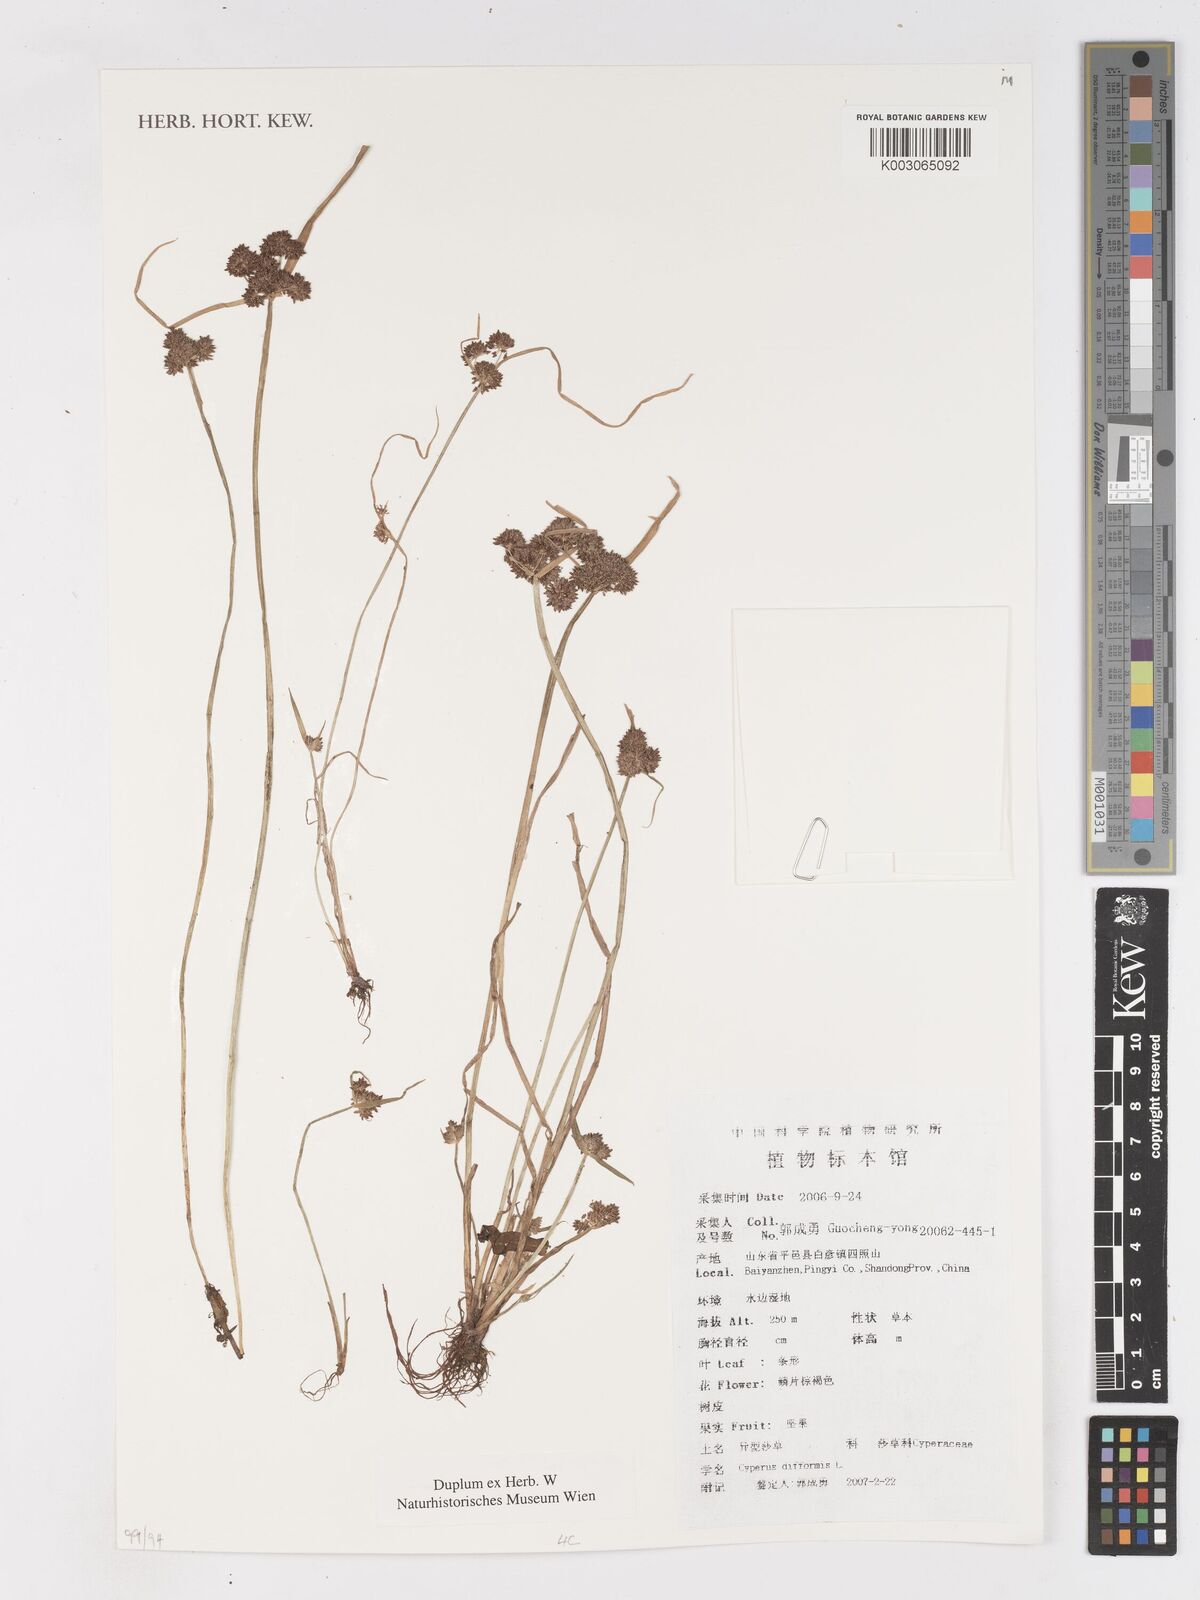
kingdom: Plantae
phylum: Tracheophyta
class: Liliopsida
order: Poales
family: Cyperaceae
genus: Cyperus
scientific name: Cyperus difformis
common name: Variable flatsedge
